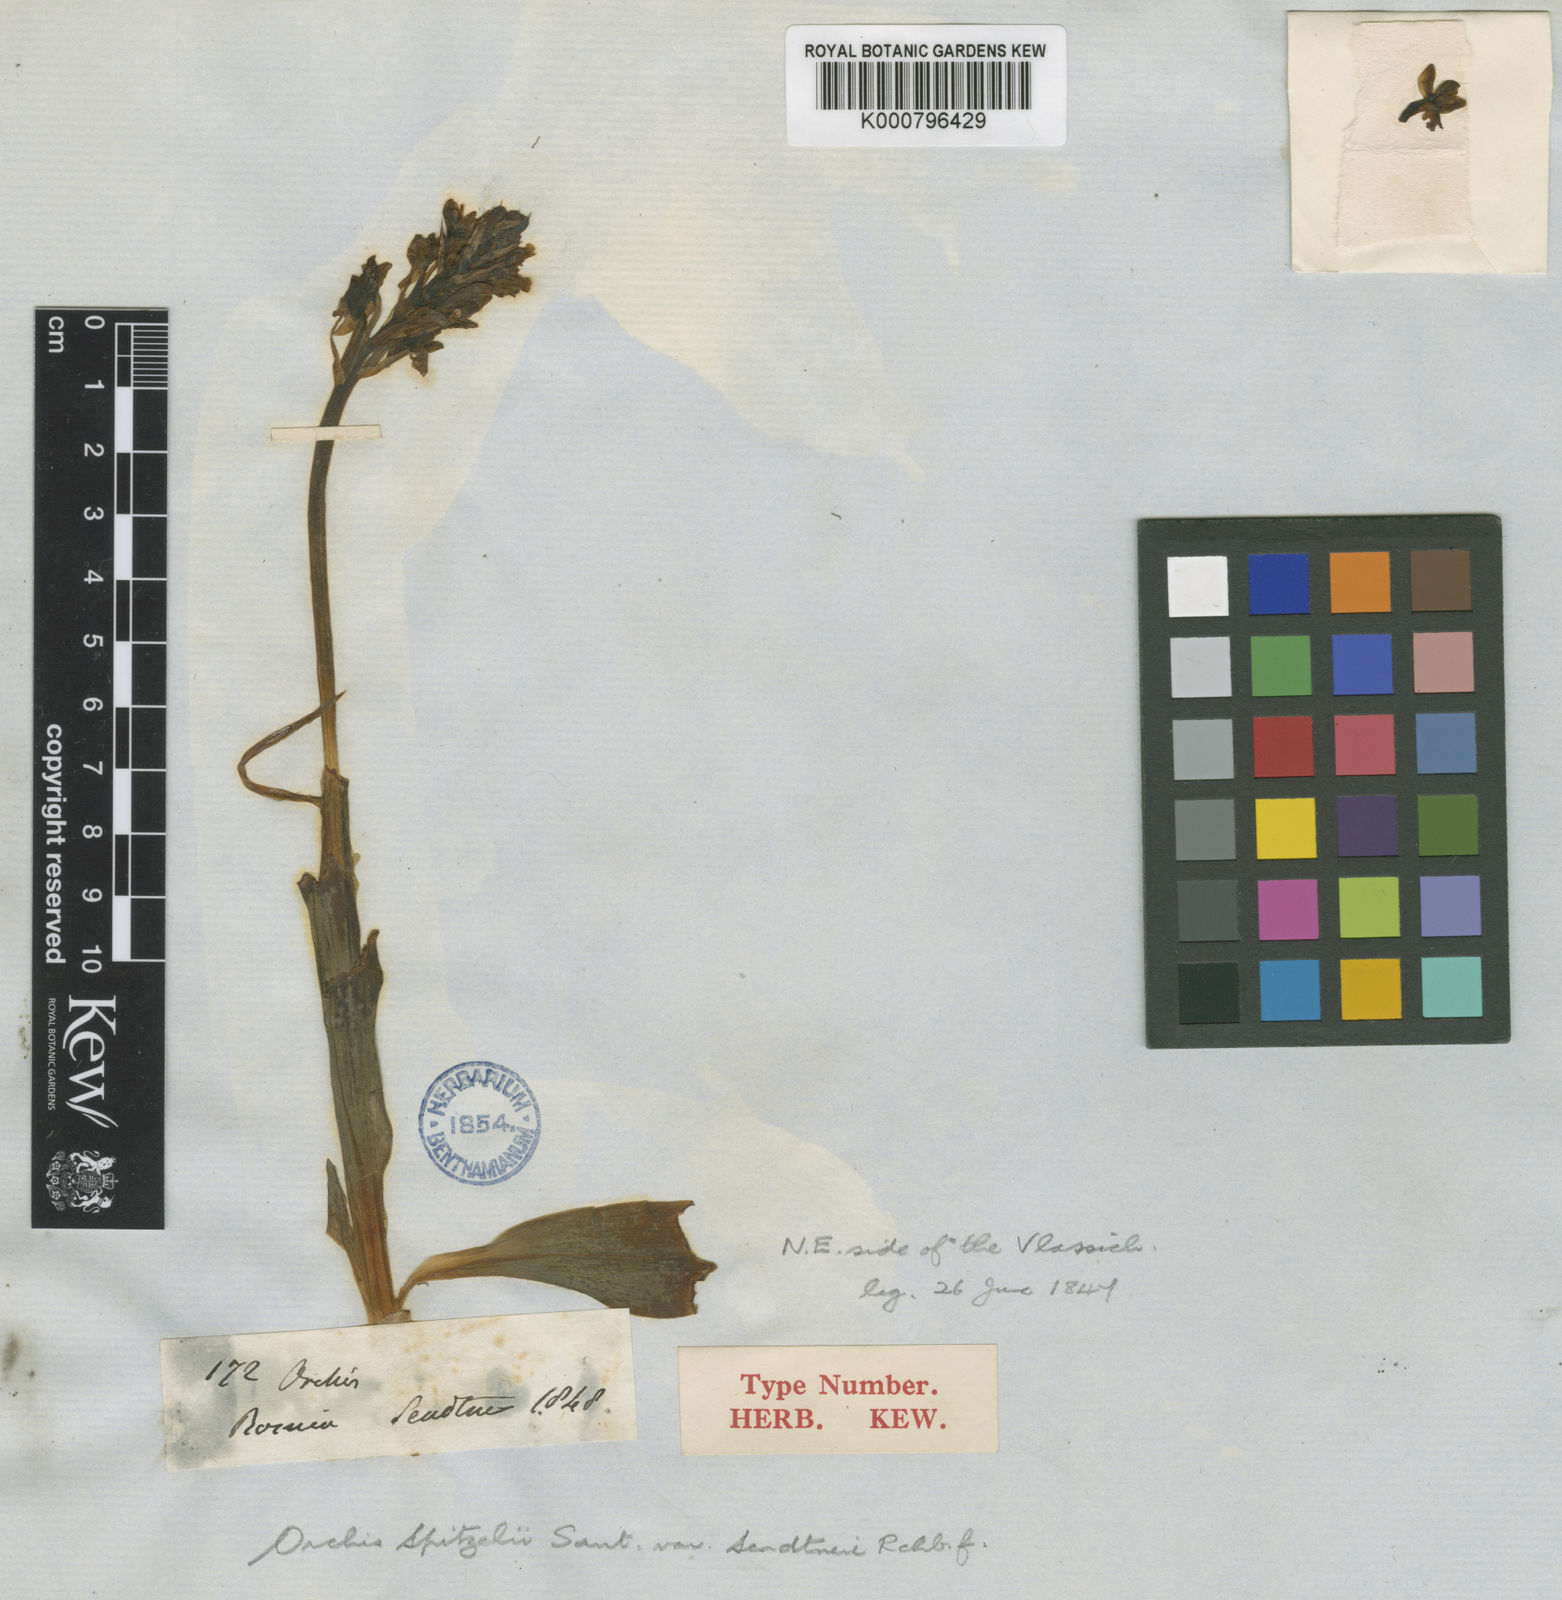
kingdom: Plantae
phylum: Tracheophyta
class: Liliopsida
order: Asparagales
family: Orchidaceae
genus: Orchis
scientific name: Orchis spitzelii
